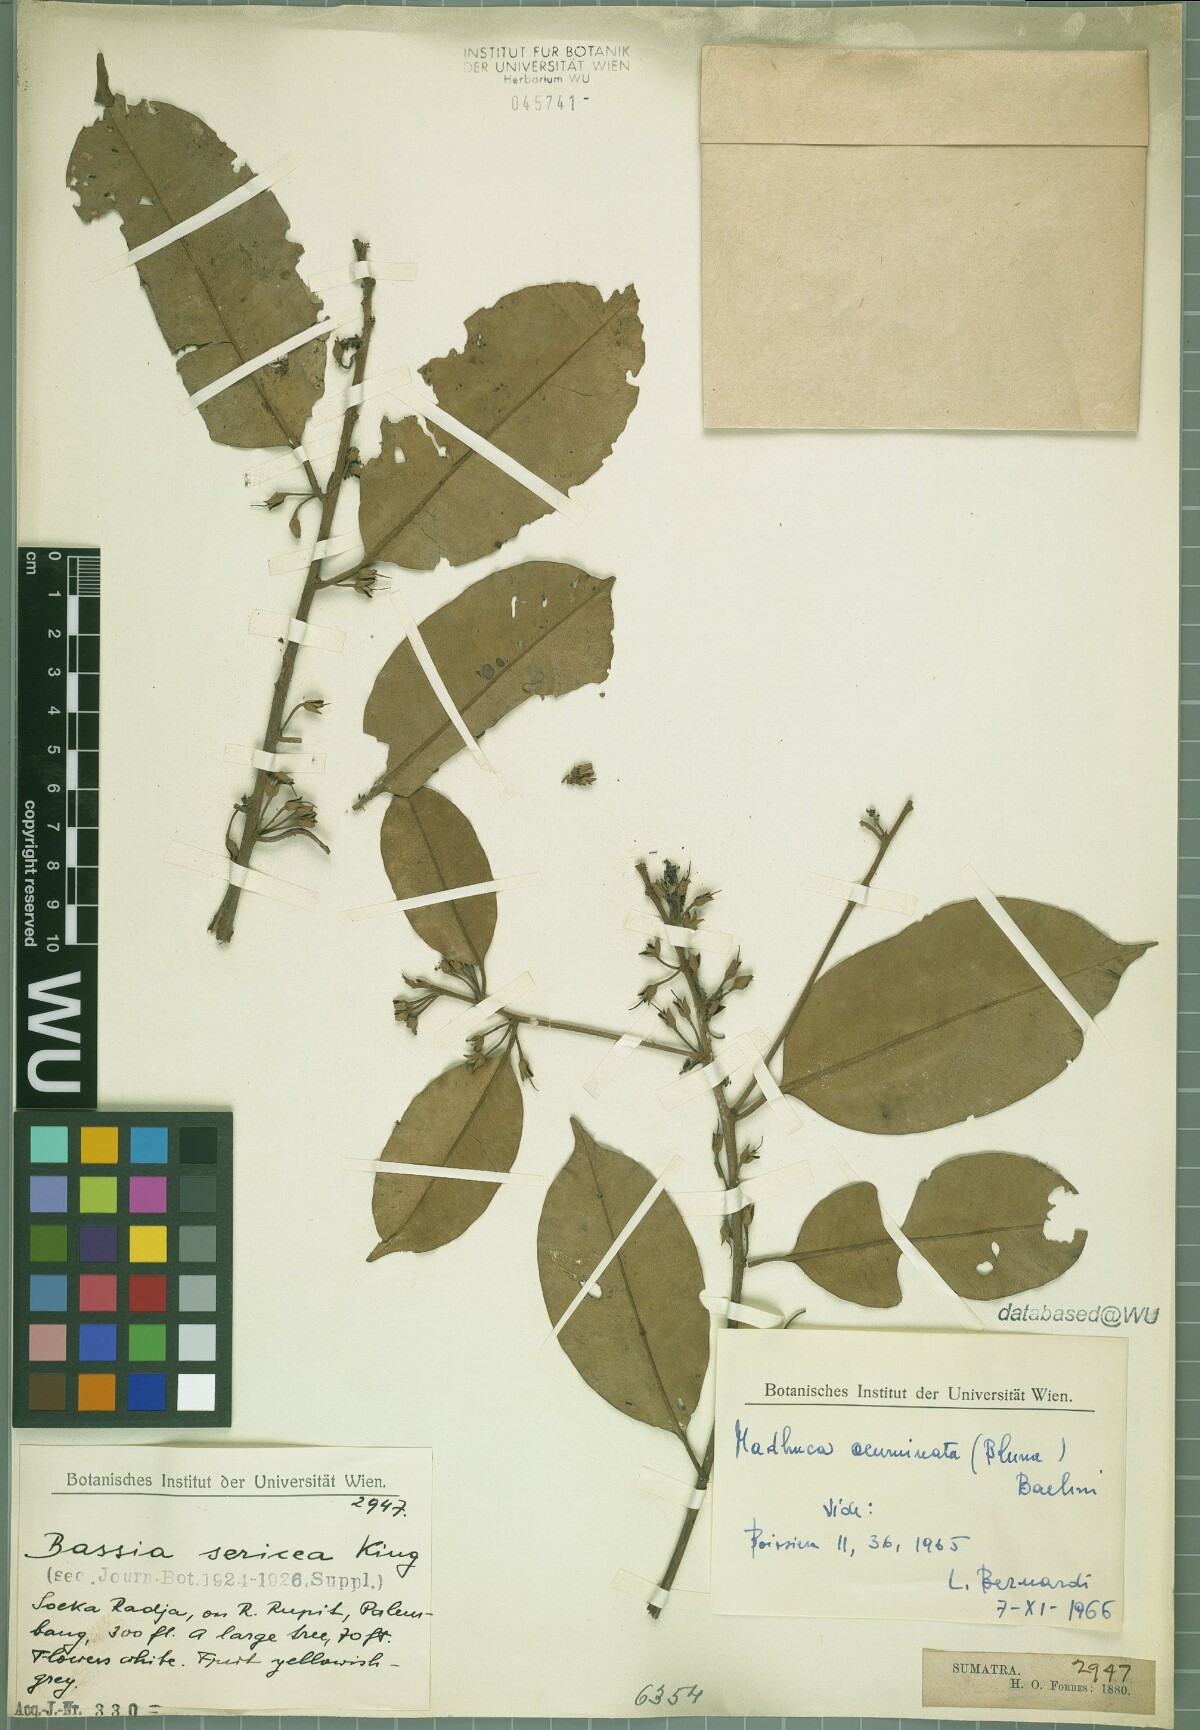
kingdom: Plantae
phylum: Tracheophyta
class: Magnoliopsida
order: Ericales
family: Sapotaceae
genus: Payena
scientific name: Payena acuminata
